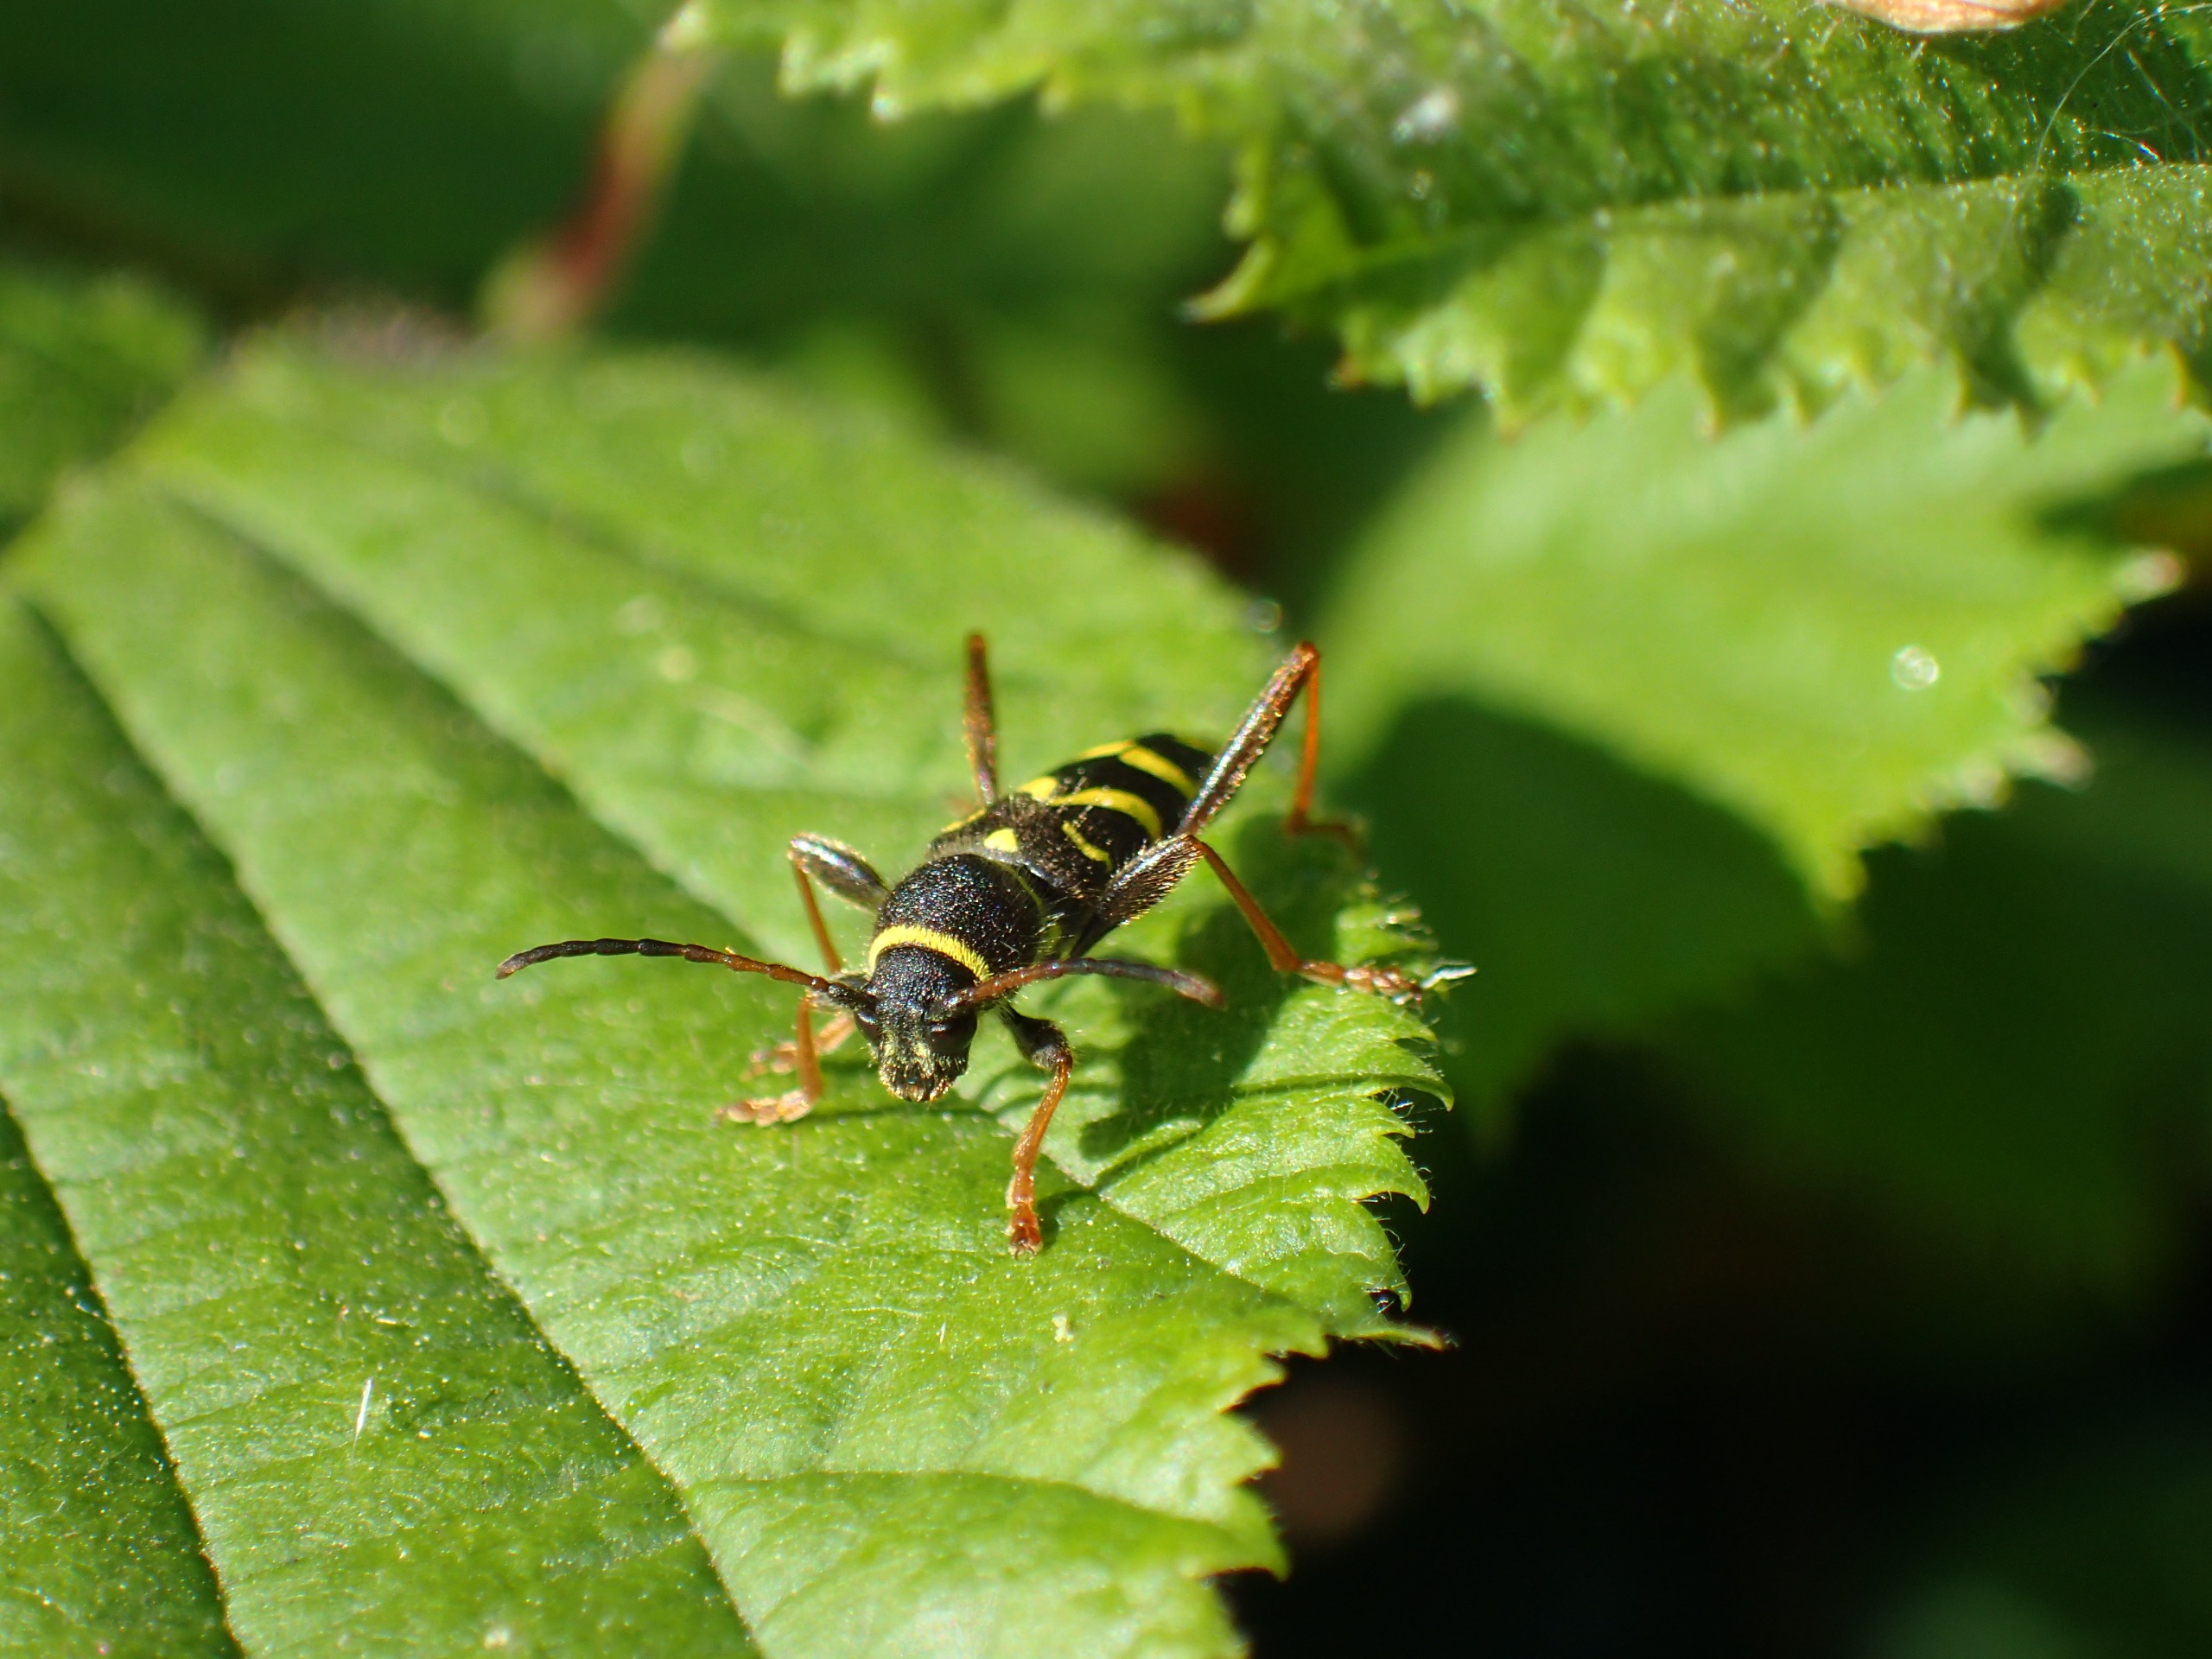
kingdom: Animalia
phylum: Arthropoda
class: Insecta
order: Coleoptera
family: Cerambycidae
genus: Clytus
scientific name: Clytus arietis
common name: Lille hvepsebuk
